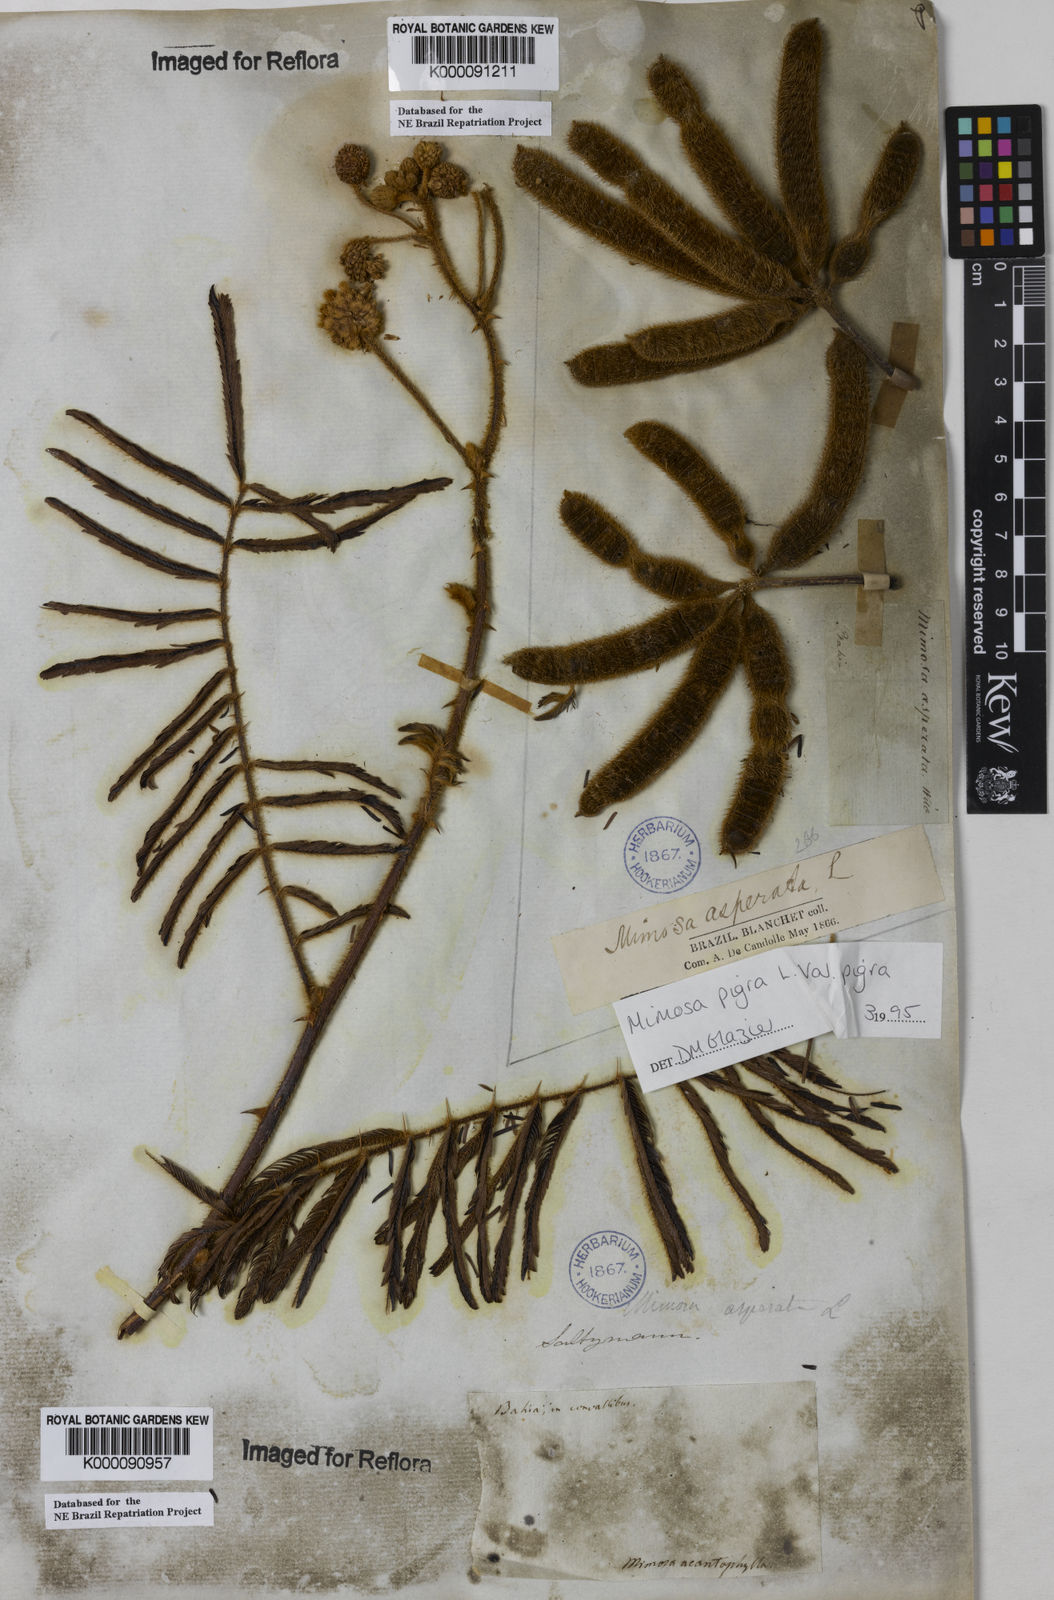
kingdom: Plantae
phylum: Tracheophyta
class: Magnoliopsida
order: Fabales
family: Fabaceae
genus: Mimosa
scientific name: Mimosa pigra
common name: Black mimosa
